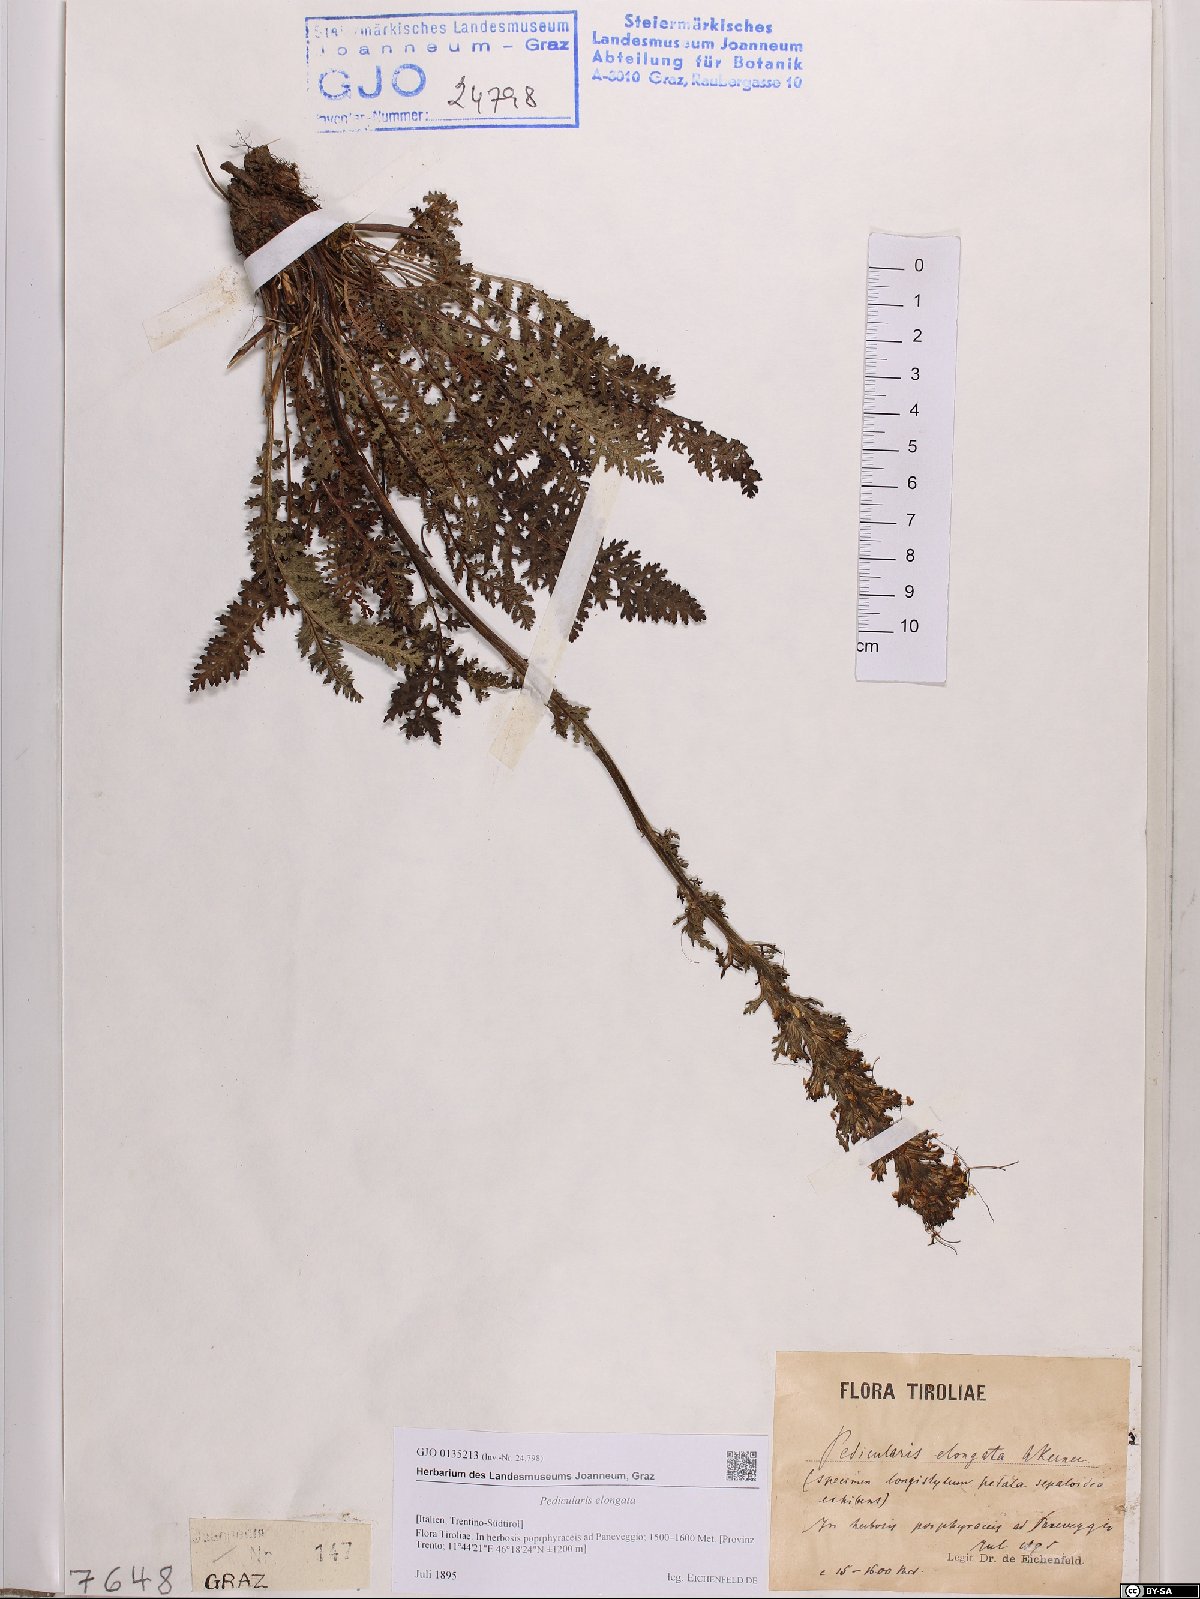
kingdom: Plantae
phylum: Tracheophyta
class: Magnoliopsida
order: Lamiales
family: Orobanchaceae
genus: Pedicularis
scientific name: Pedicularis elongata
